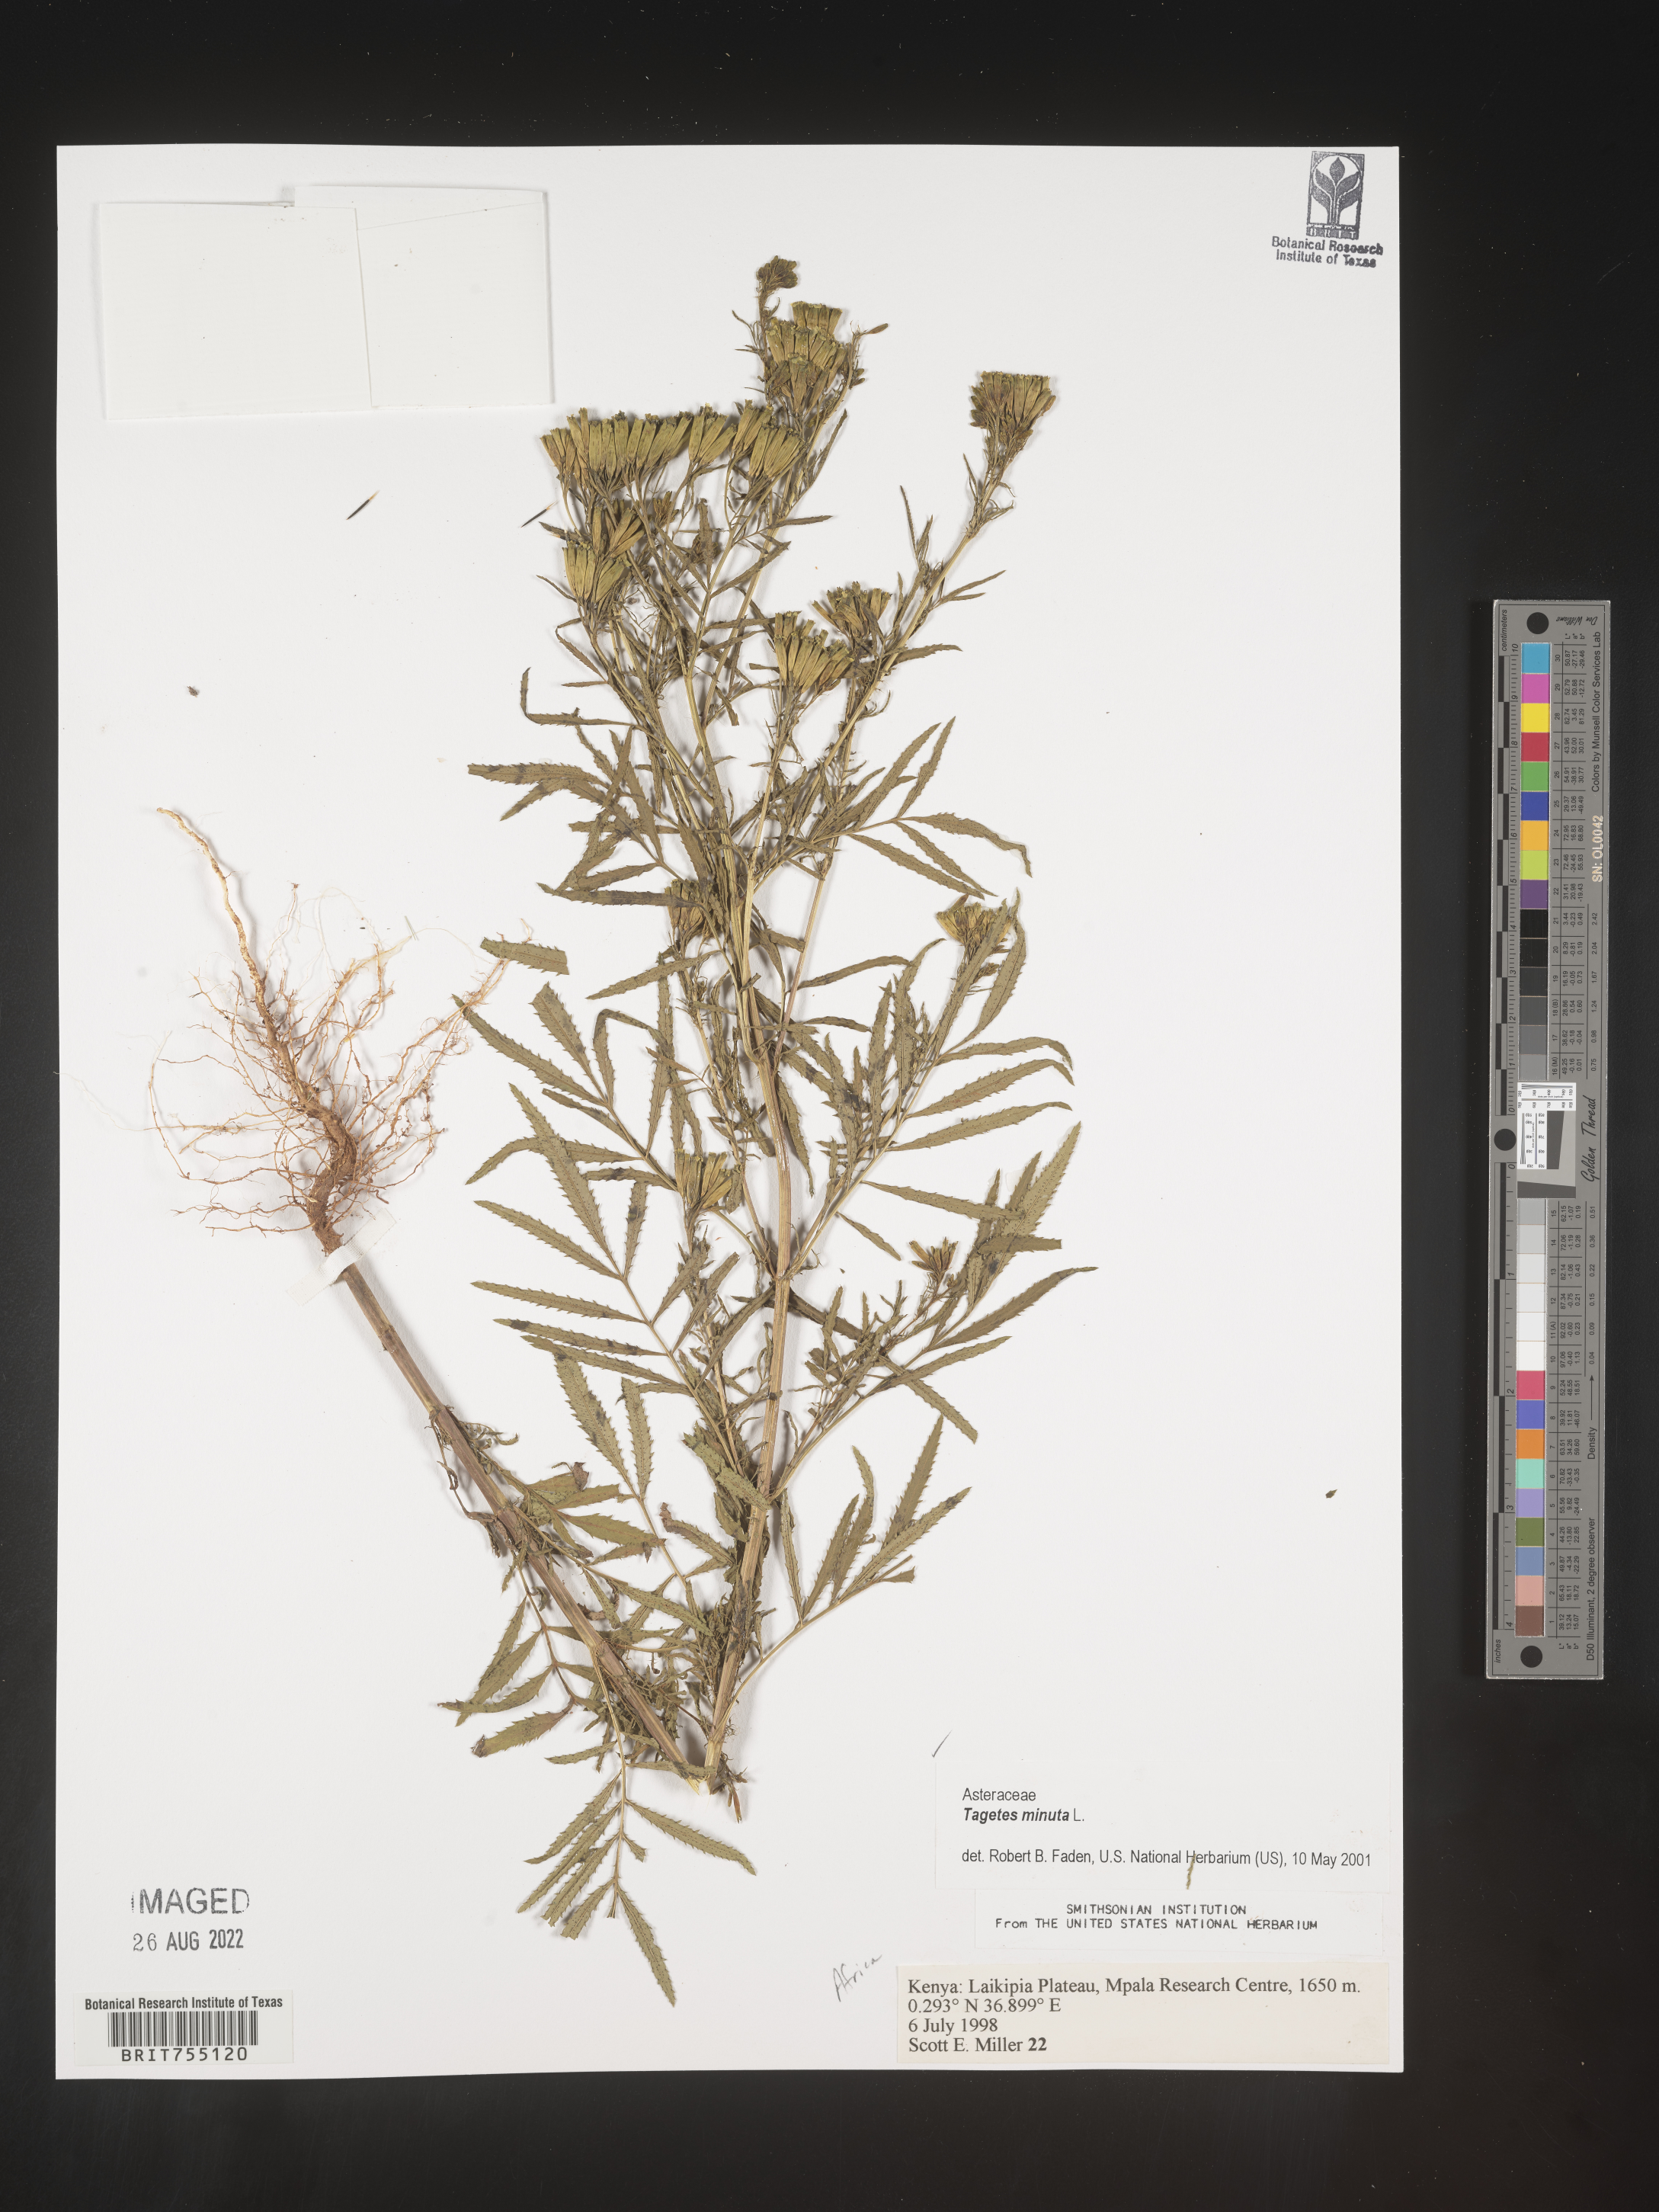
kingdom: Plantae
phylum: Tracheophyta
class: Magnoliopsida
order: Asterales
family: Asteraceae
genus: Tagetes
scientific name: Tagetes
